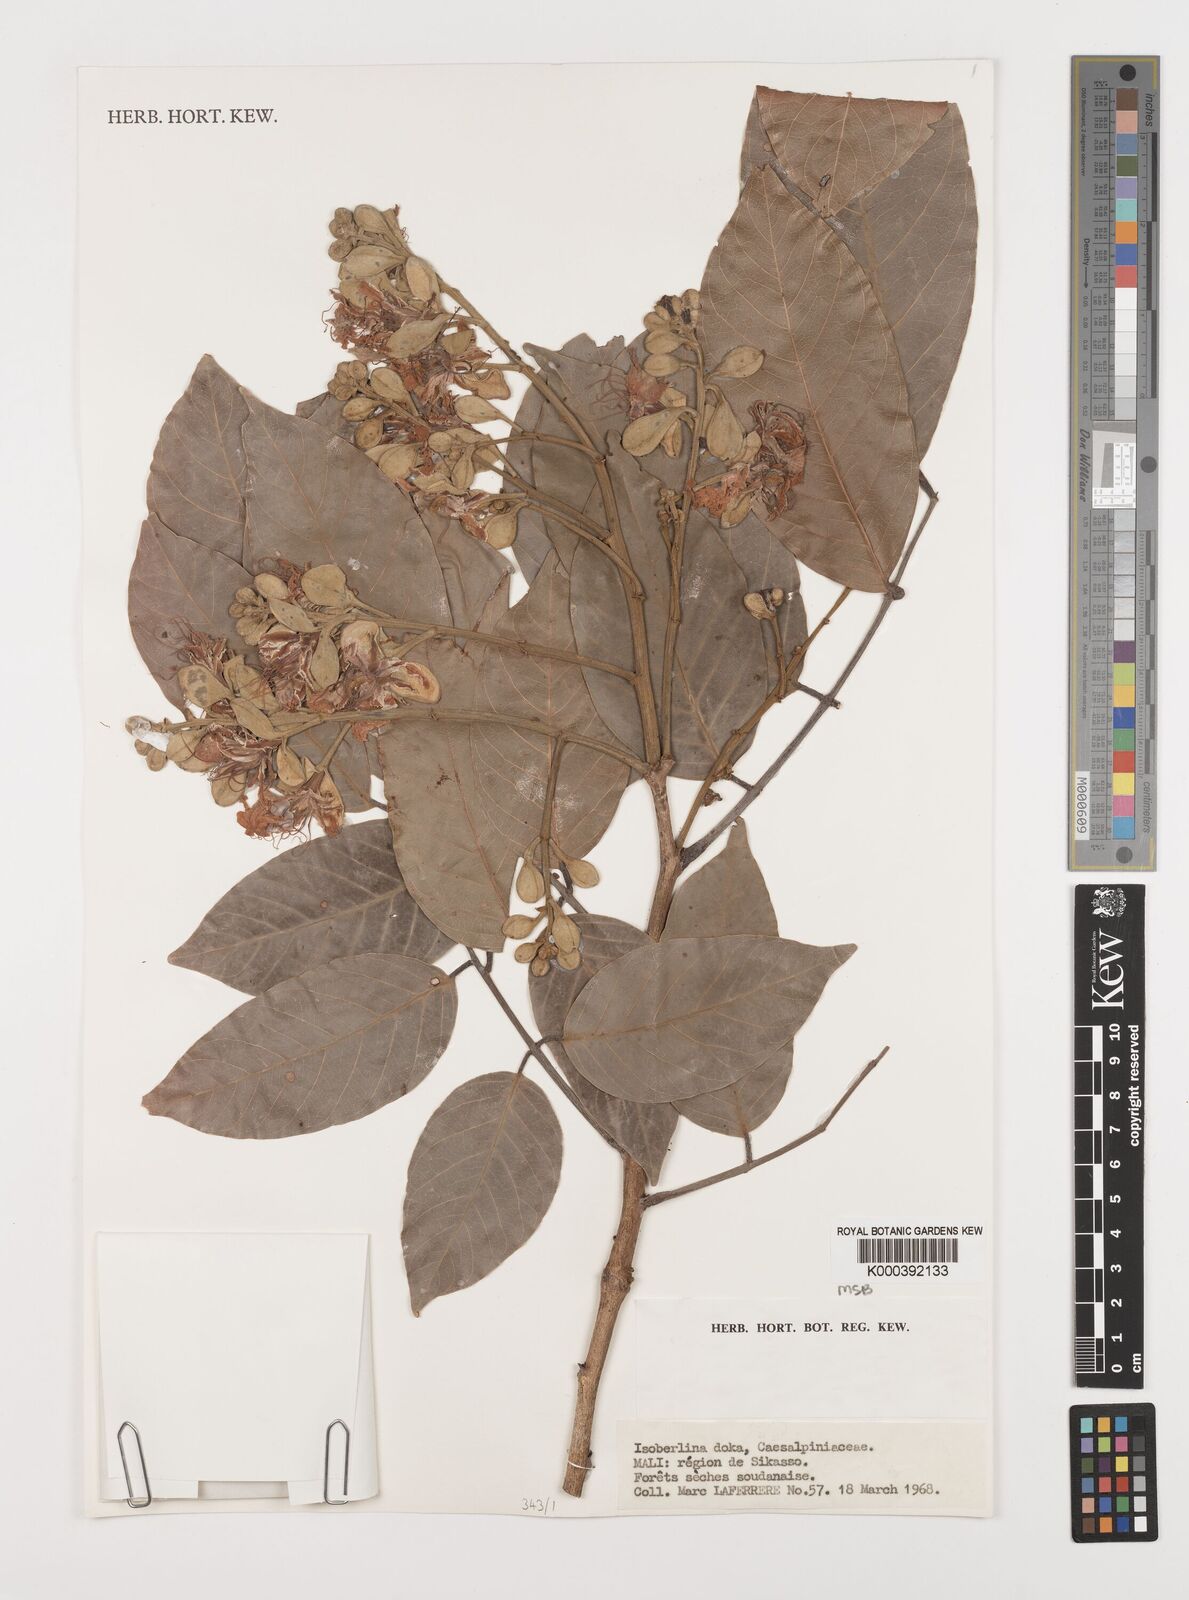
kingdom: Plantae
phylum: Tracheophyta
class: Magnoliopsida
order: Fabales
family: Fabaceae
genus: Isoberlinia
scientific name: Isoberlinia doka
